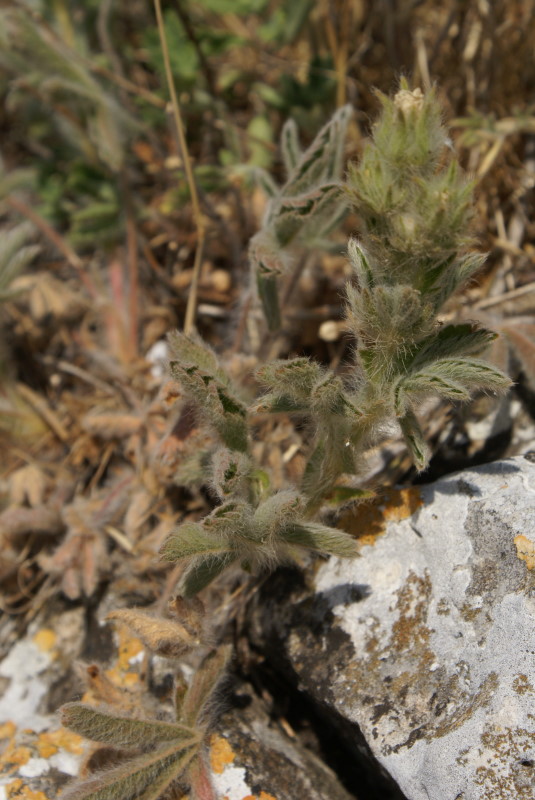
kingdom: Plantae
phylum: Tracheophyta
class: Magnoliopsida
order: Rosales
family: Rosaceae
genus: Potentilla
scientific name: Potentilla
